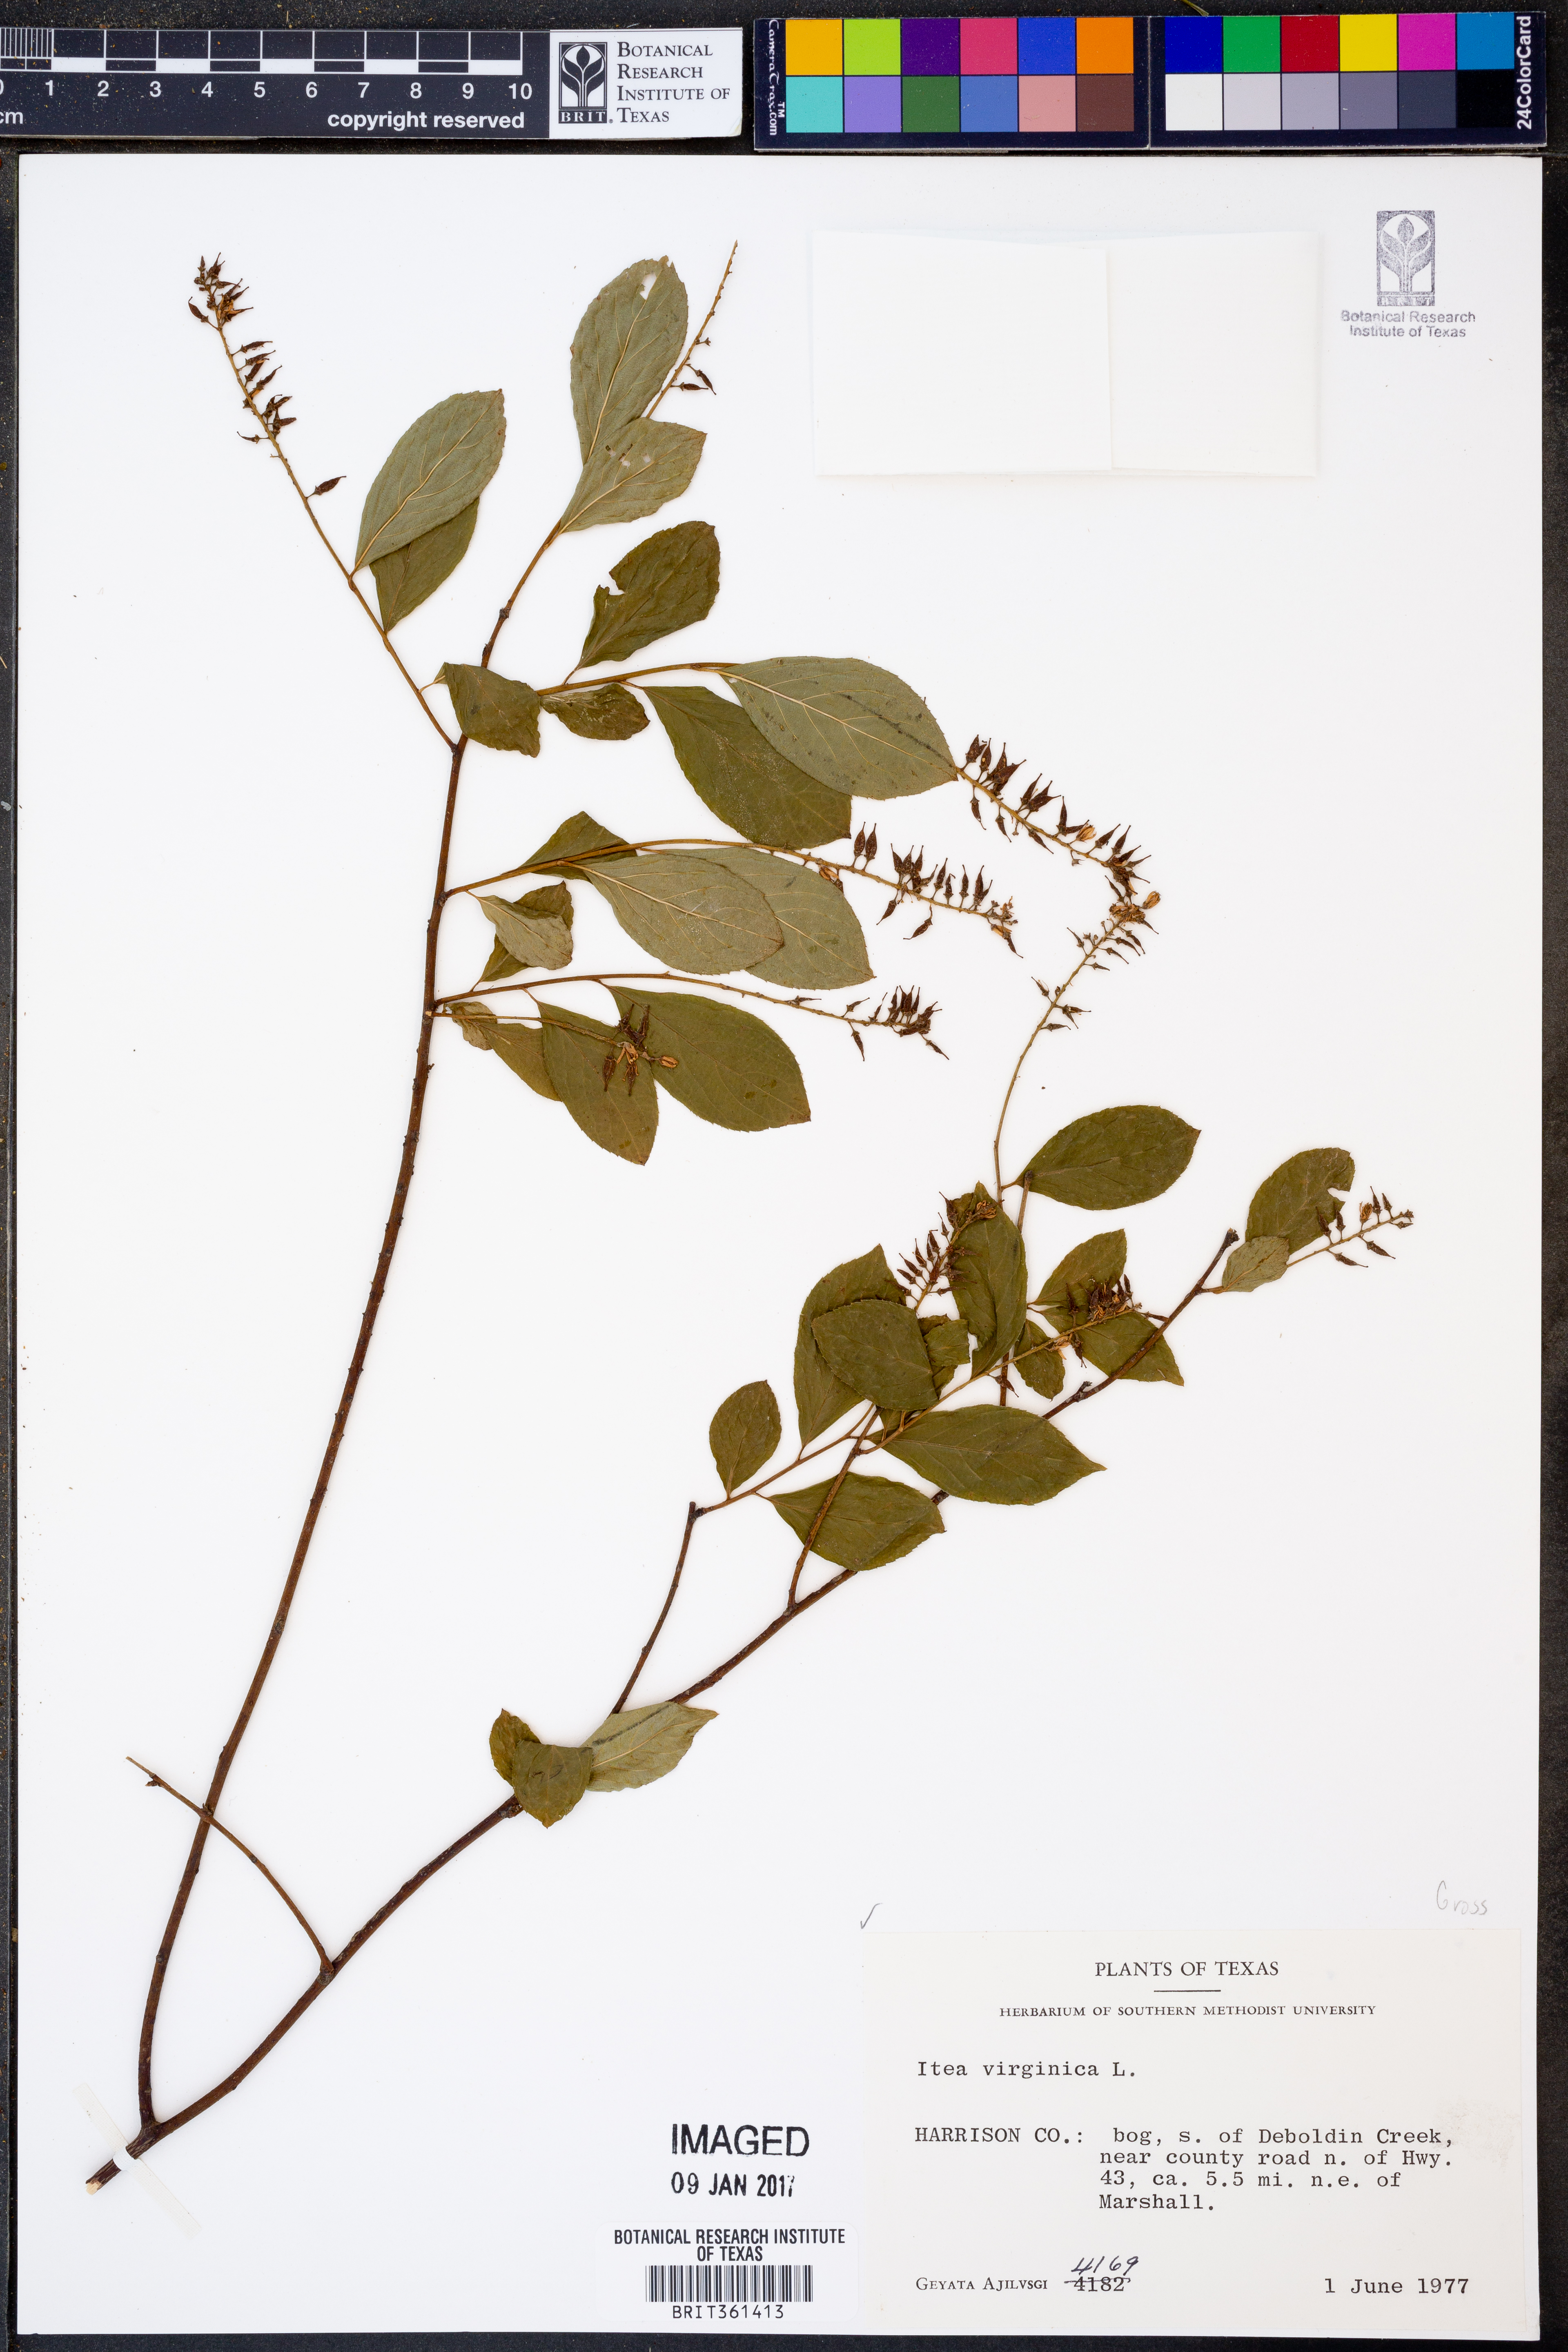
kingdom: Plantae
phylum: Tracheophyta
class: Magnoliopsida
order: Saxifragales
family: Iteaceae
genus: Itea
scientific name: Itea virginica
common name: Sweetspire
